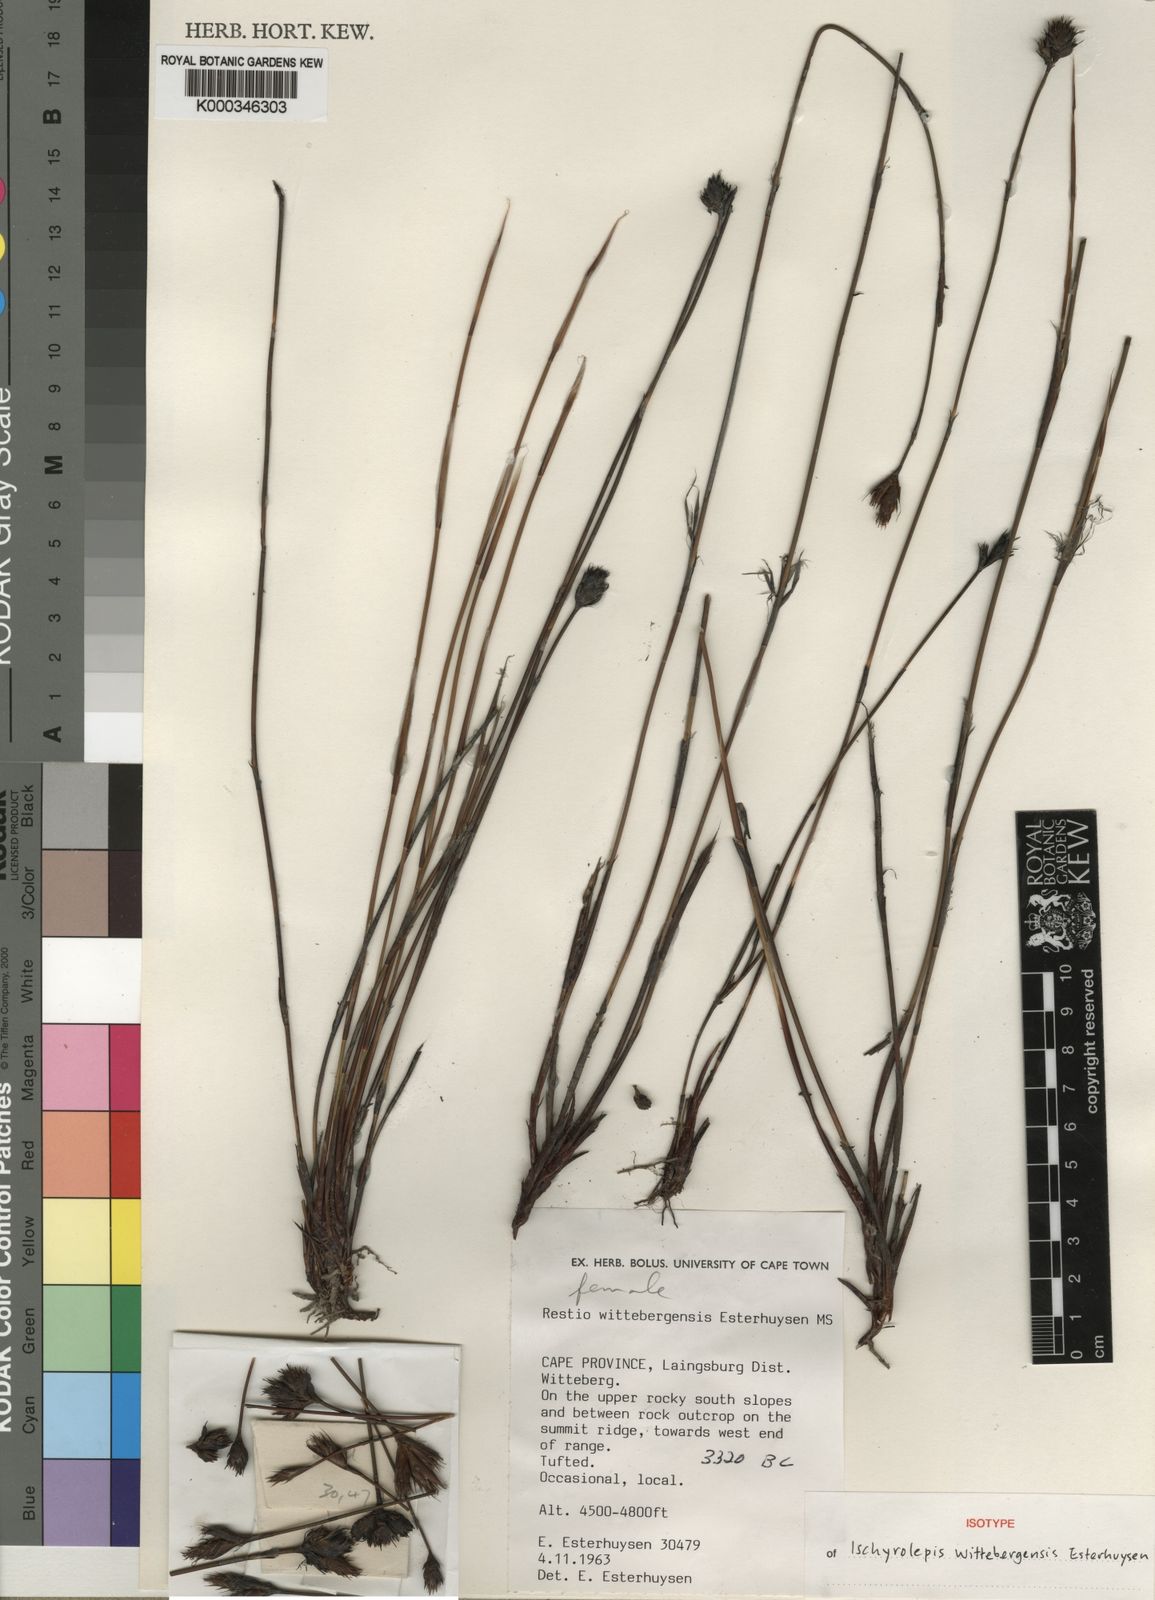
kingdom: Plantae
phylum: Tracheophyta
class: Liliopsida
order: Poales
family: Restionaceae
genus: Restio
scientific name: Restio wittebergensis
